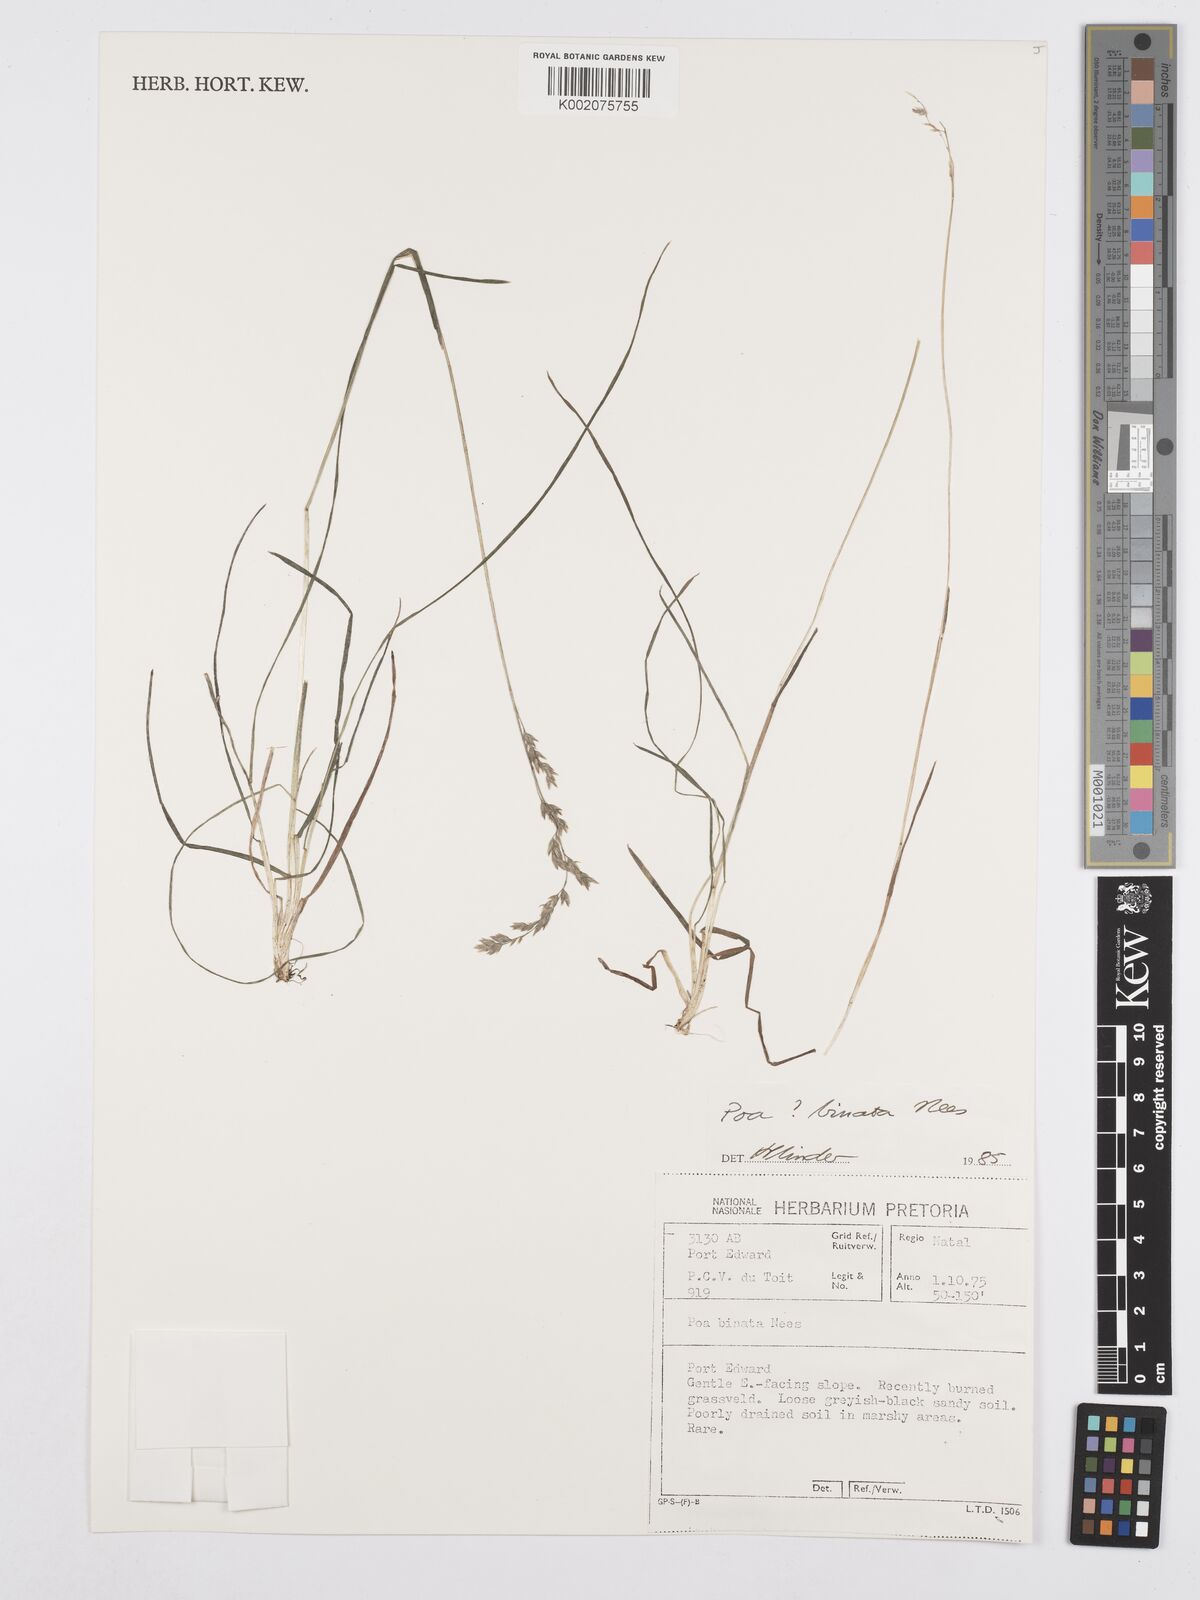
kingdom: Plantae
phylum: Tracheophyta
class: Liliopsida
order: Poales
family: Poaceae
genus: Poa
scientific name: Poa binata
